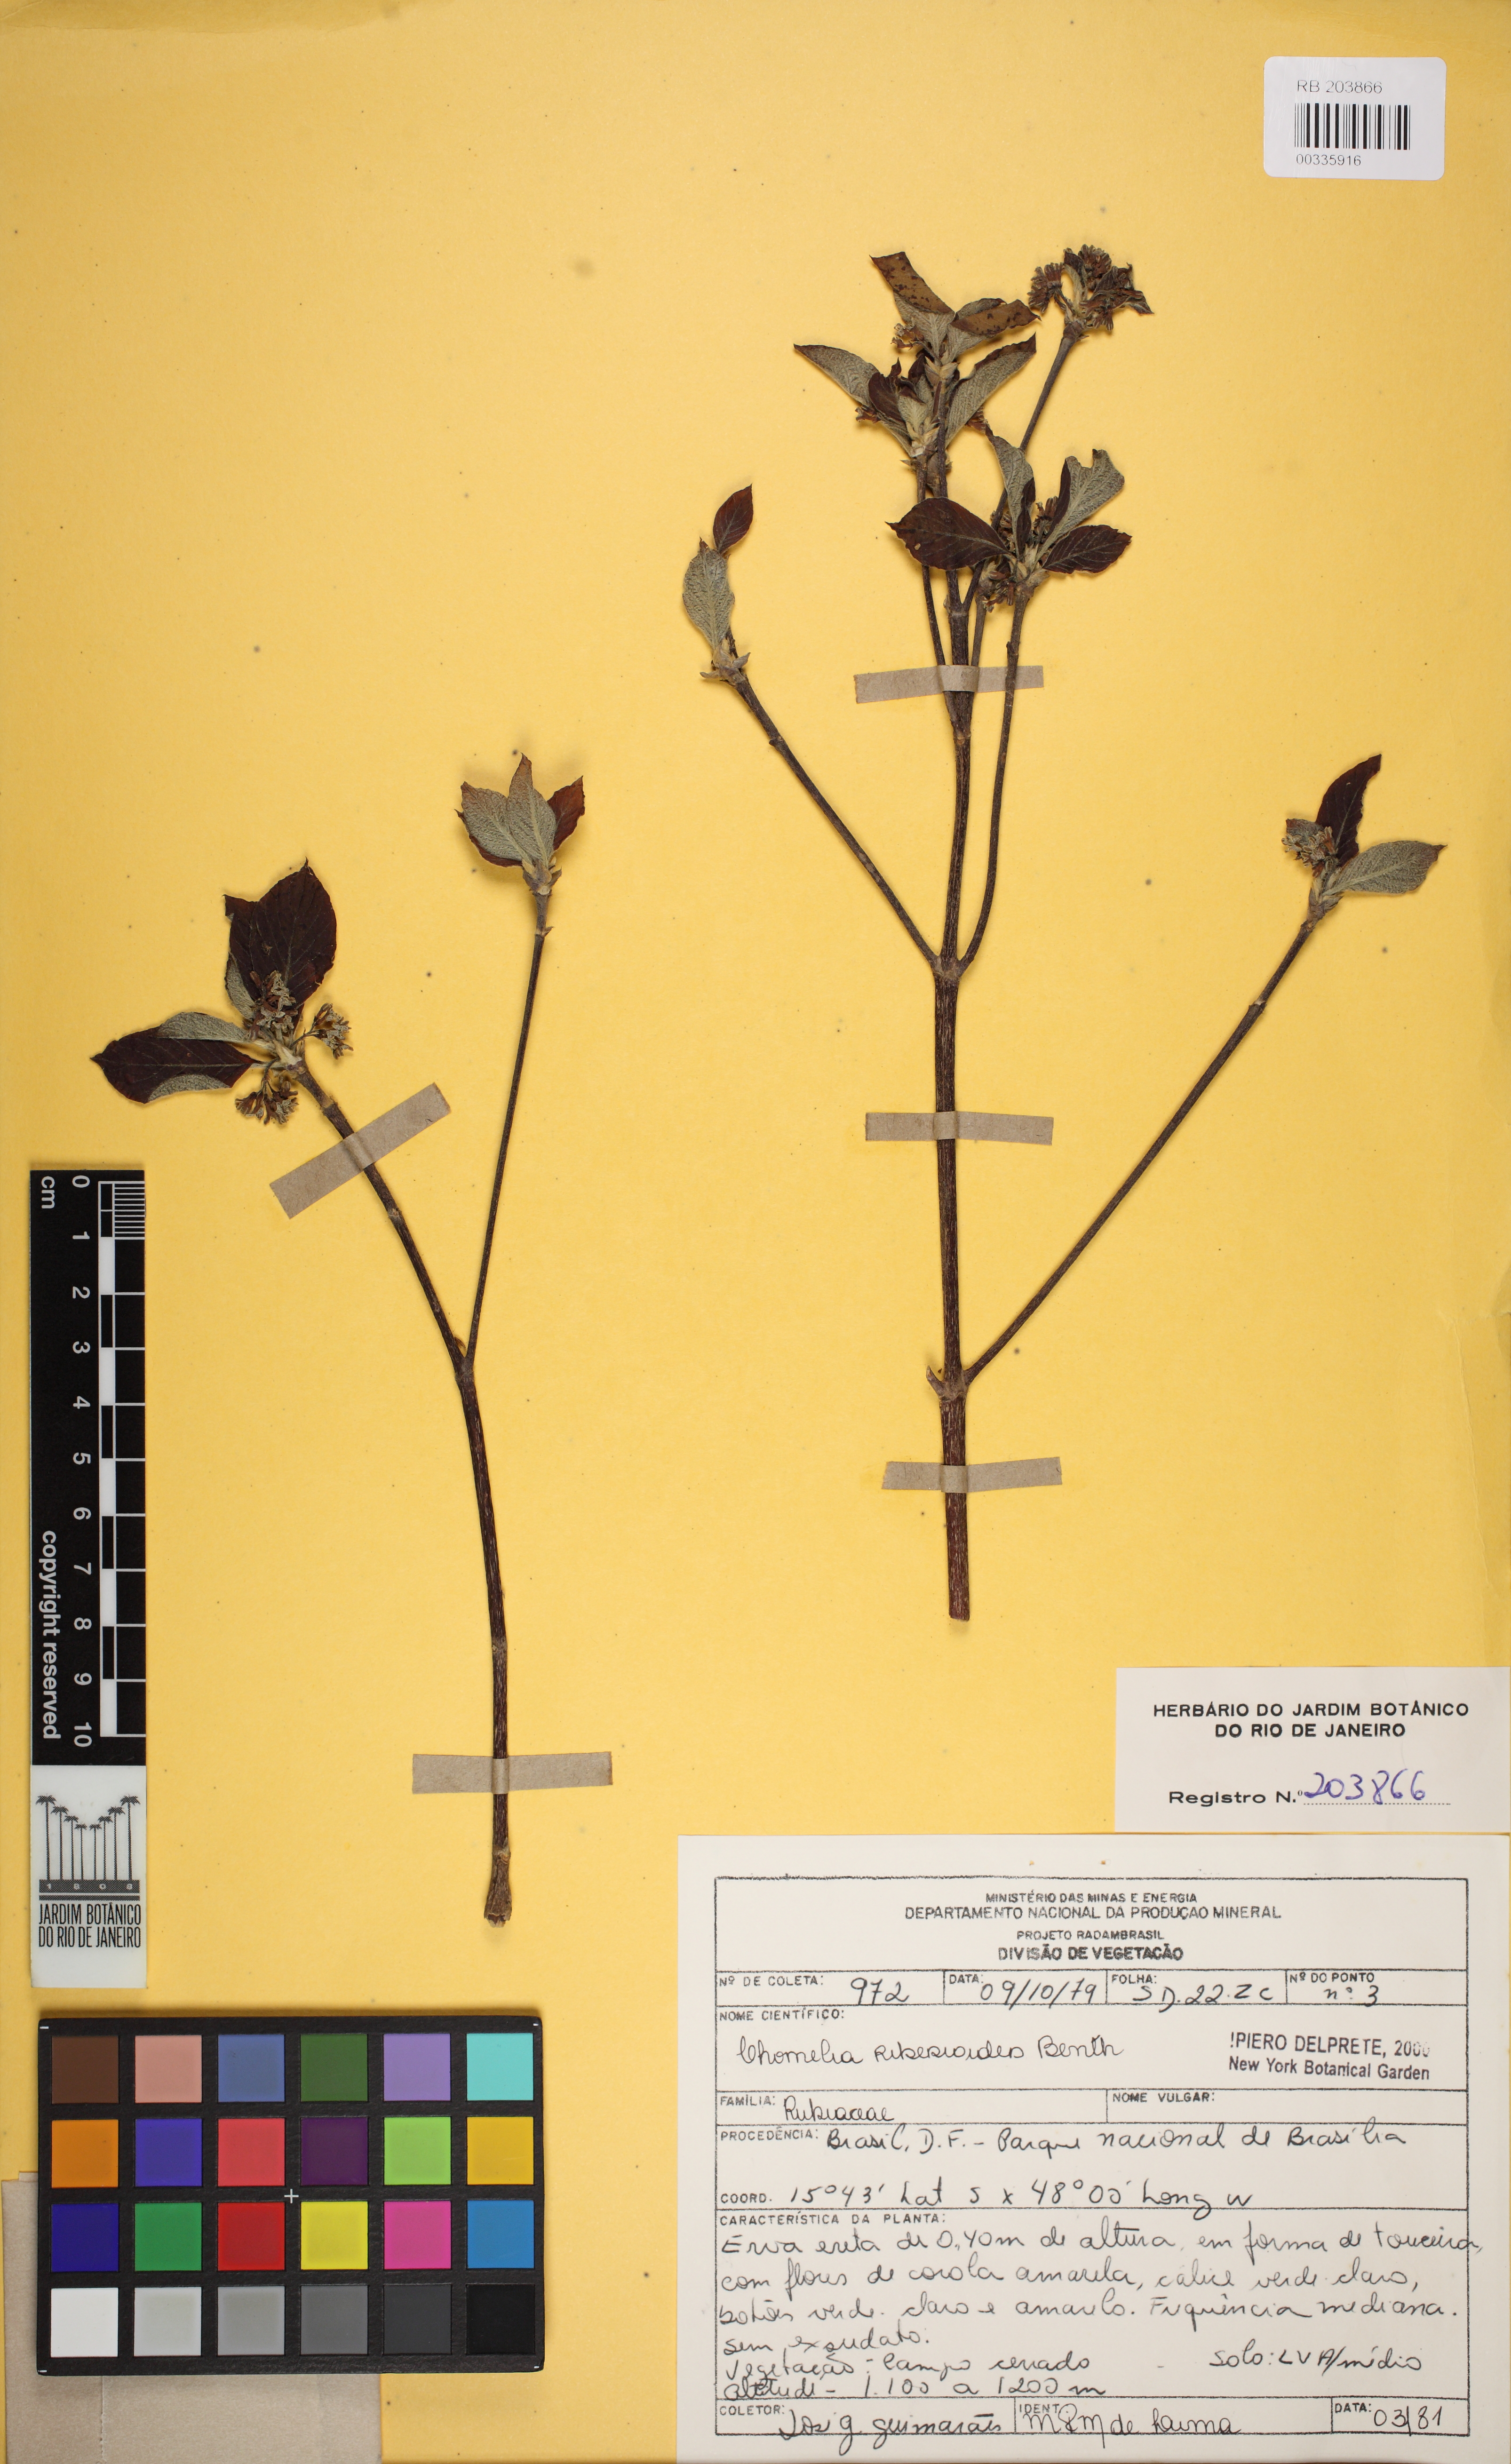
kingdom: Plantae
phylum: Tracheophyta
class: Magnoliopsida
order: Gentianales
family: Rubiaceae
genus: Chomelia
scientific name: Chomelia ribesioides
